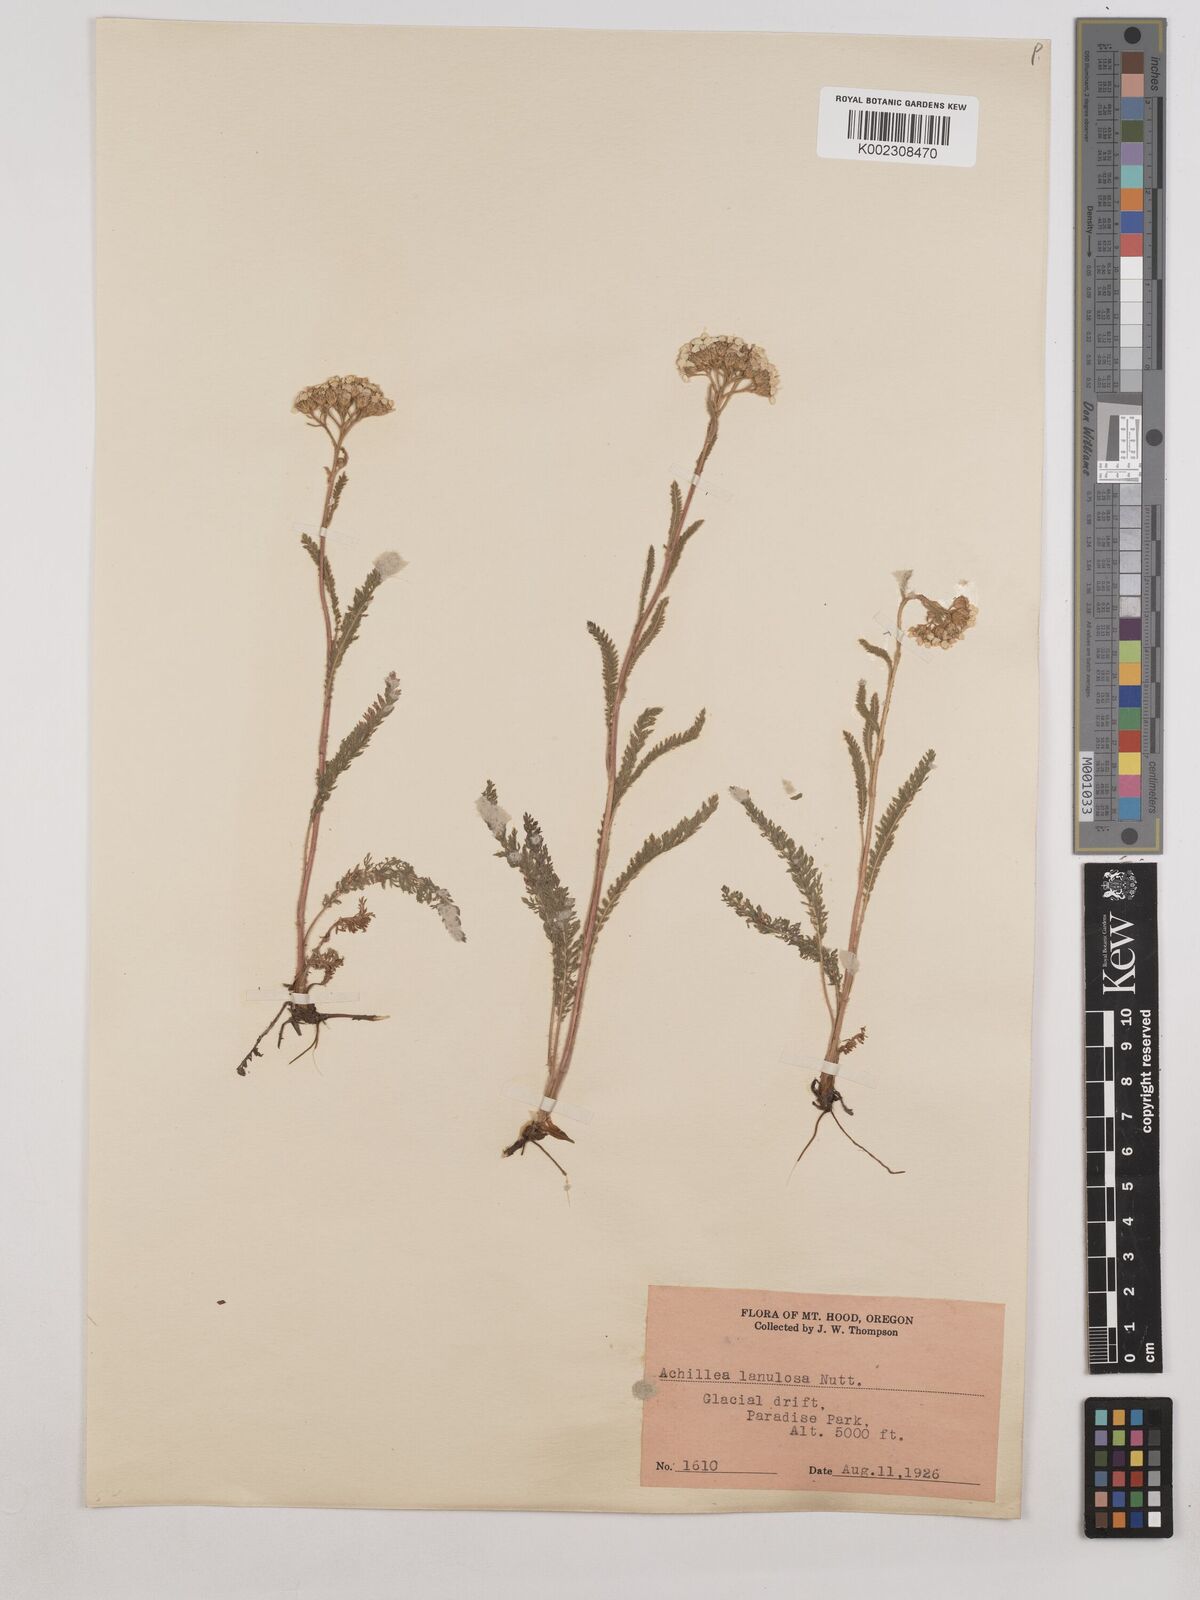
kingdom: Plantae
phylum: Tracheophyta
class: Magnoliopsida
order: Asterales
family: Asteraceae
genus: Achillea
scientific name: Achillea millefolium
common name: Yarrow
